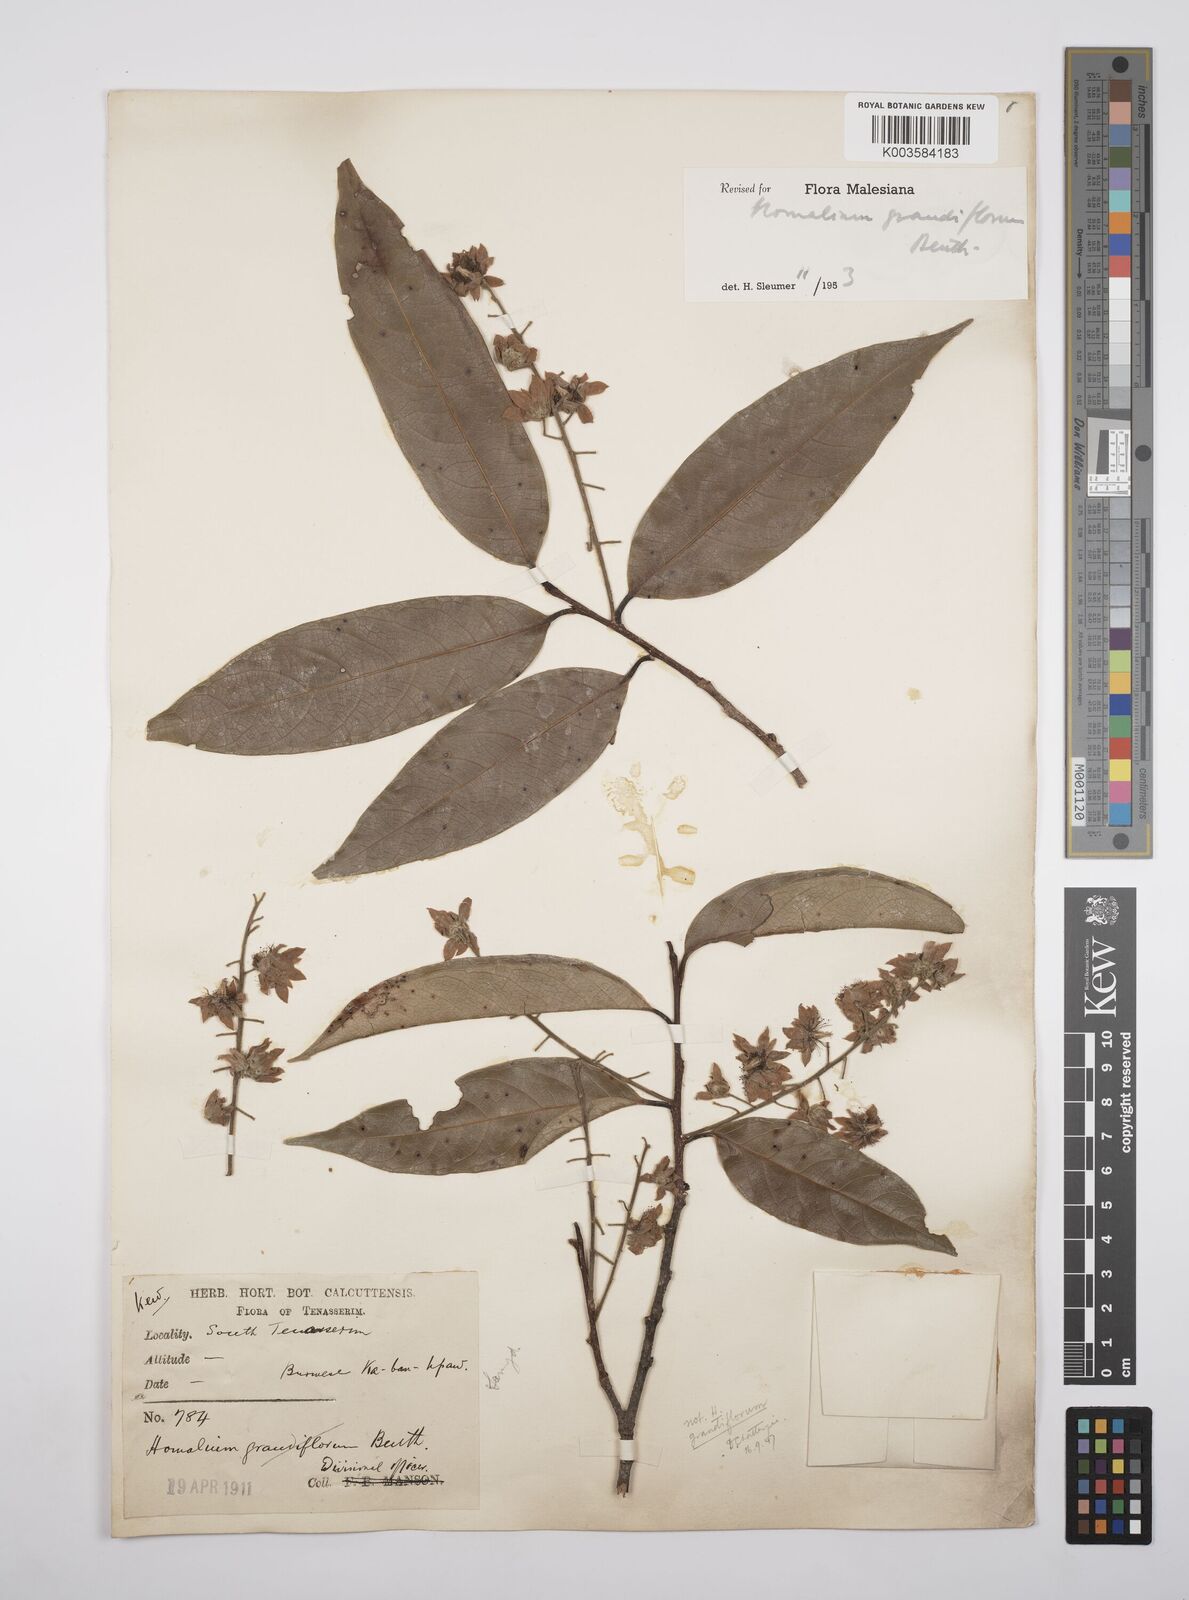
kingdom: Plantae
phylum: Tracheophyta
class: Magnoliopsida
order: Malpighiales
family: Salicaceae
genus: Homalium
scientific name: Homalium grandiflorum
